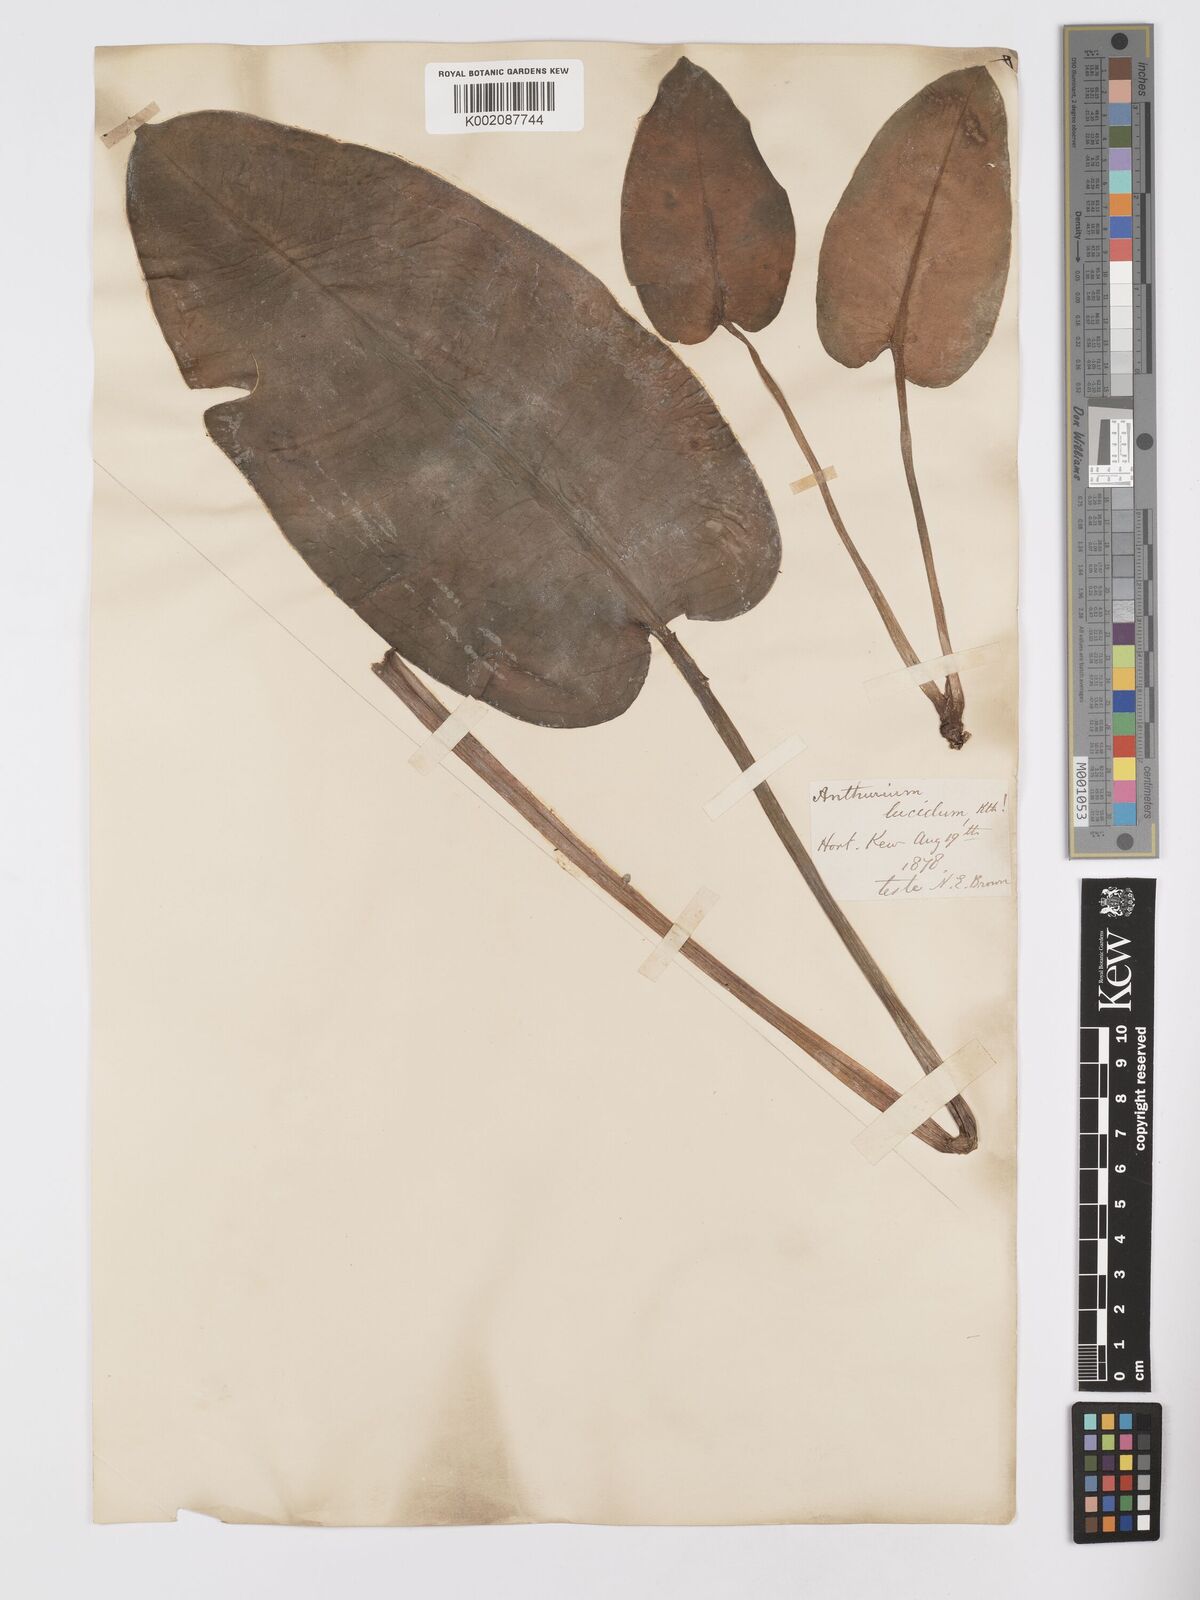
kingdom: Plantae
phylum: Tracheophyta
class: Liliopsida
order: Alismatales
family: Araceae
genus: Anthurium
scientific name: Anthurium lucidum
